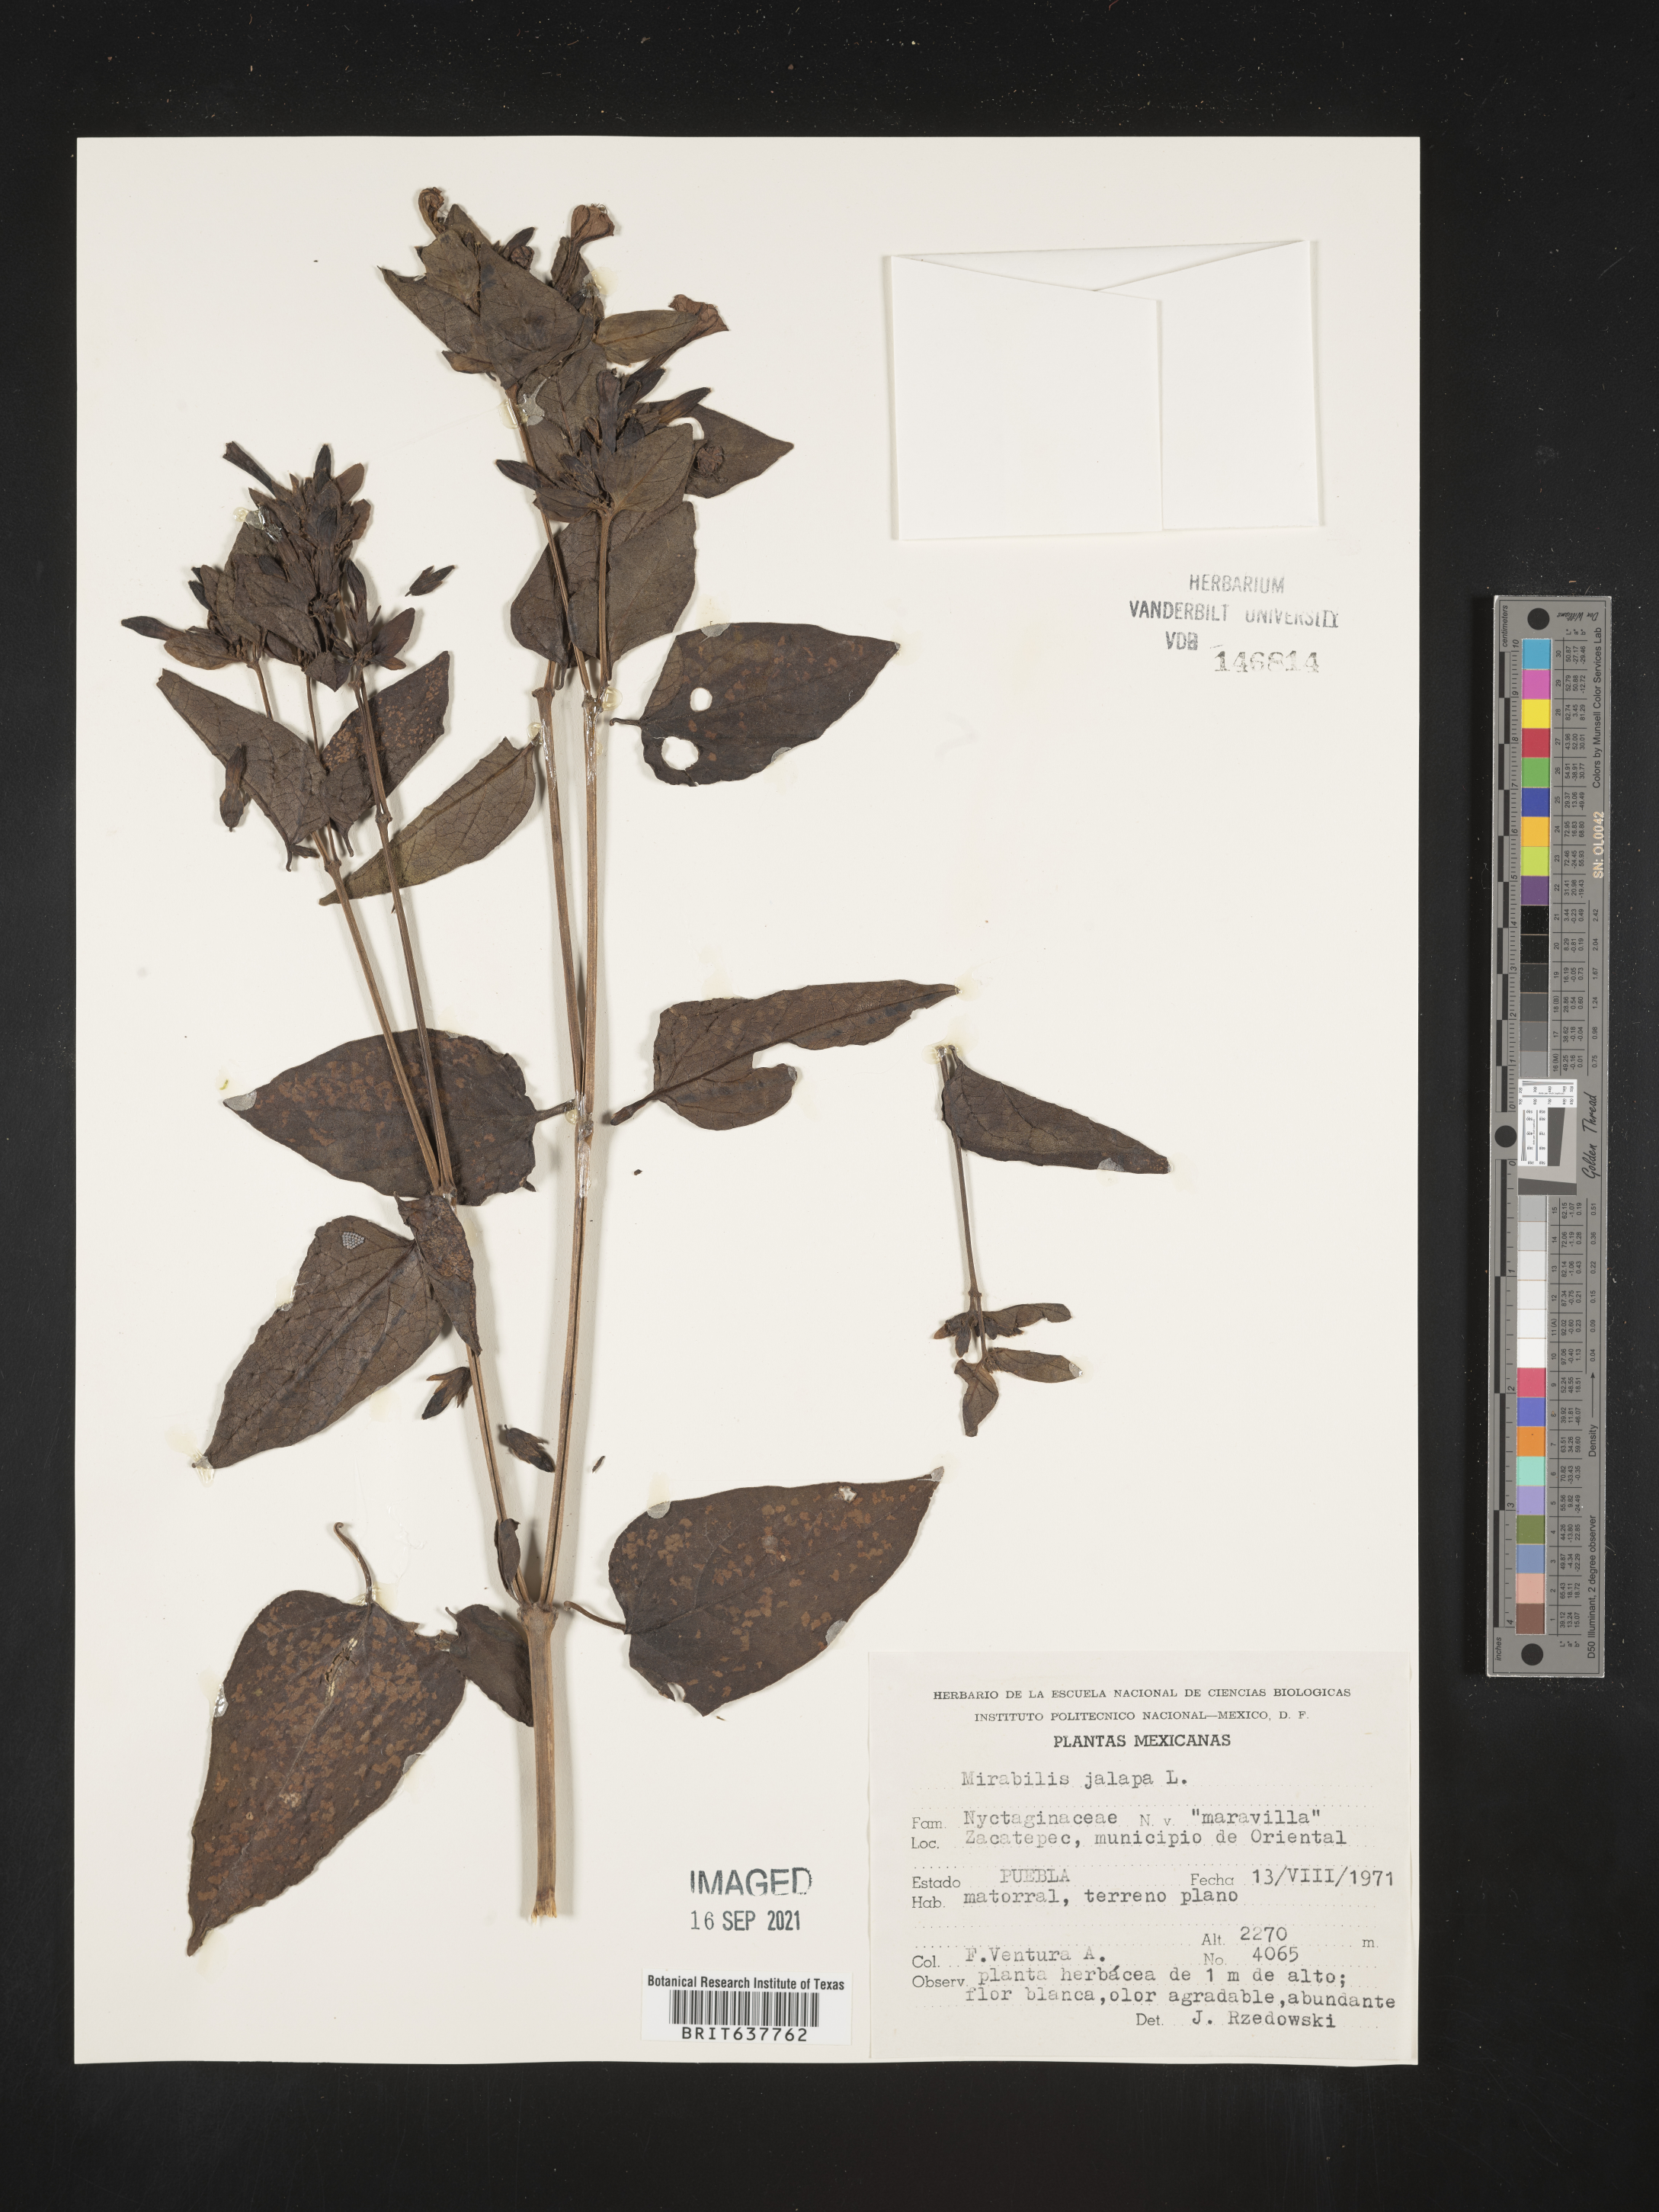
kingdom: Plantae
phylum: Tracheophyta
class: Magnoliopsida
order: Caryophyllales
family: Nyctaginaceae
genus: Mirabilis
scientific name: Mirabilis
